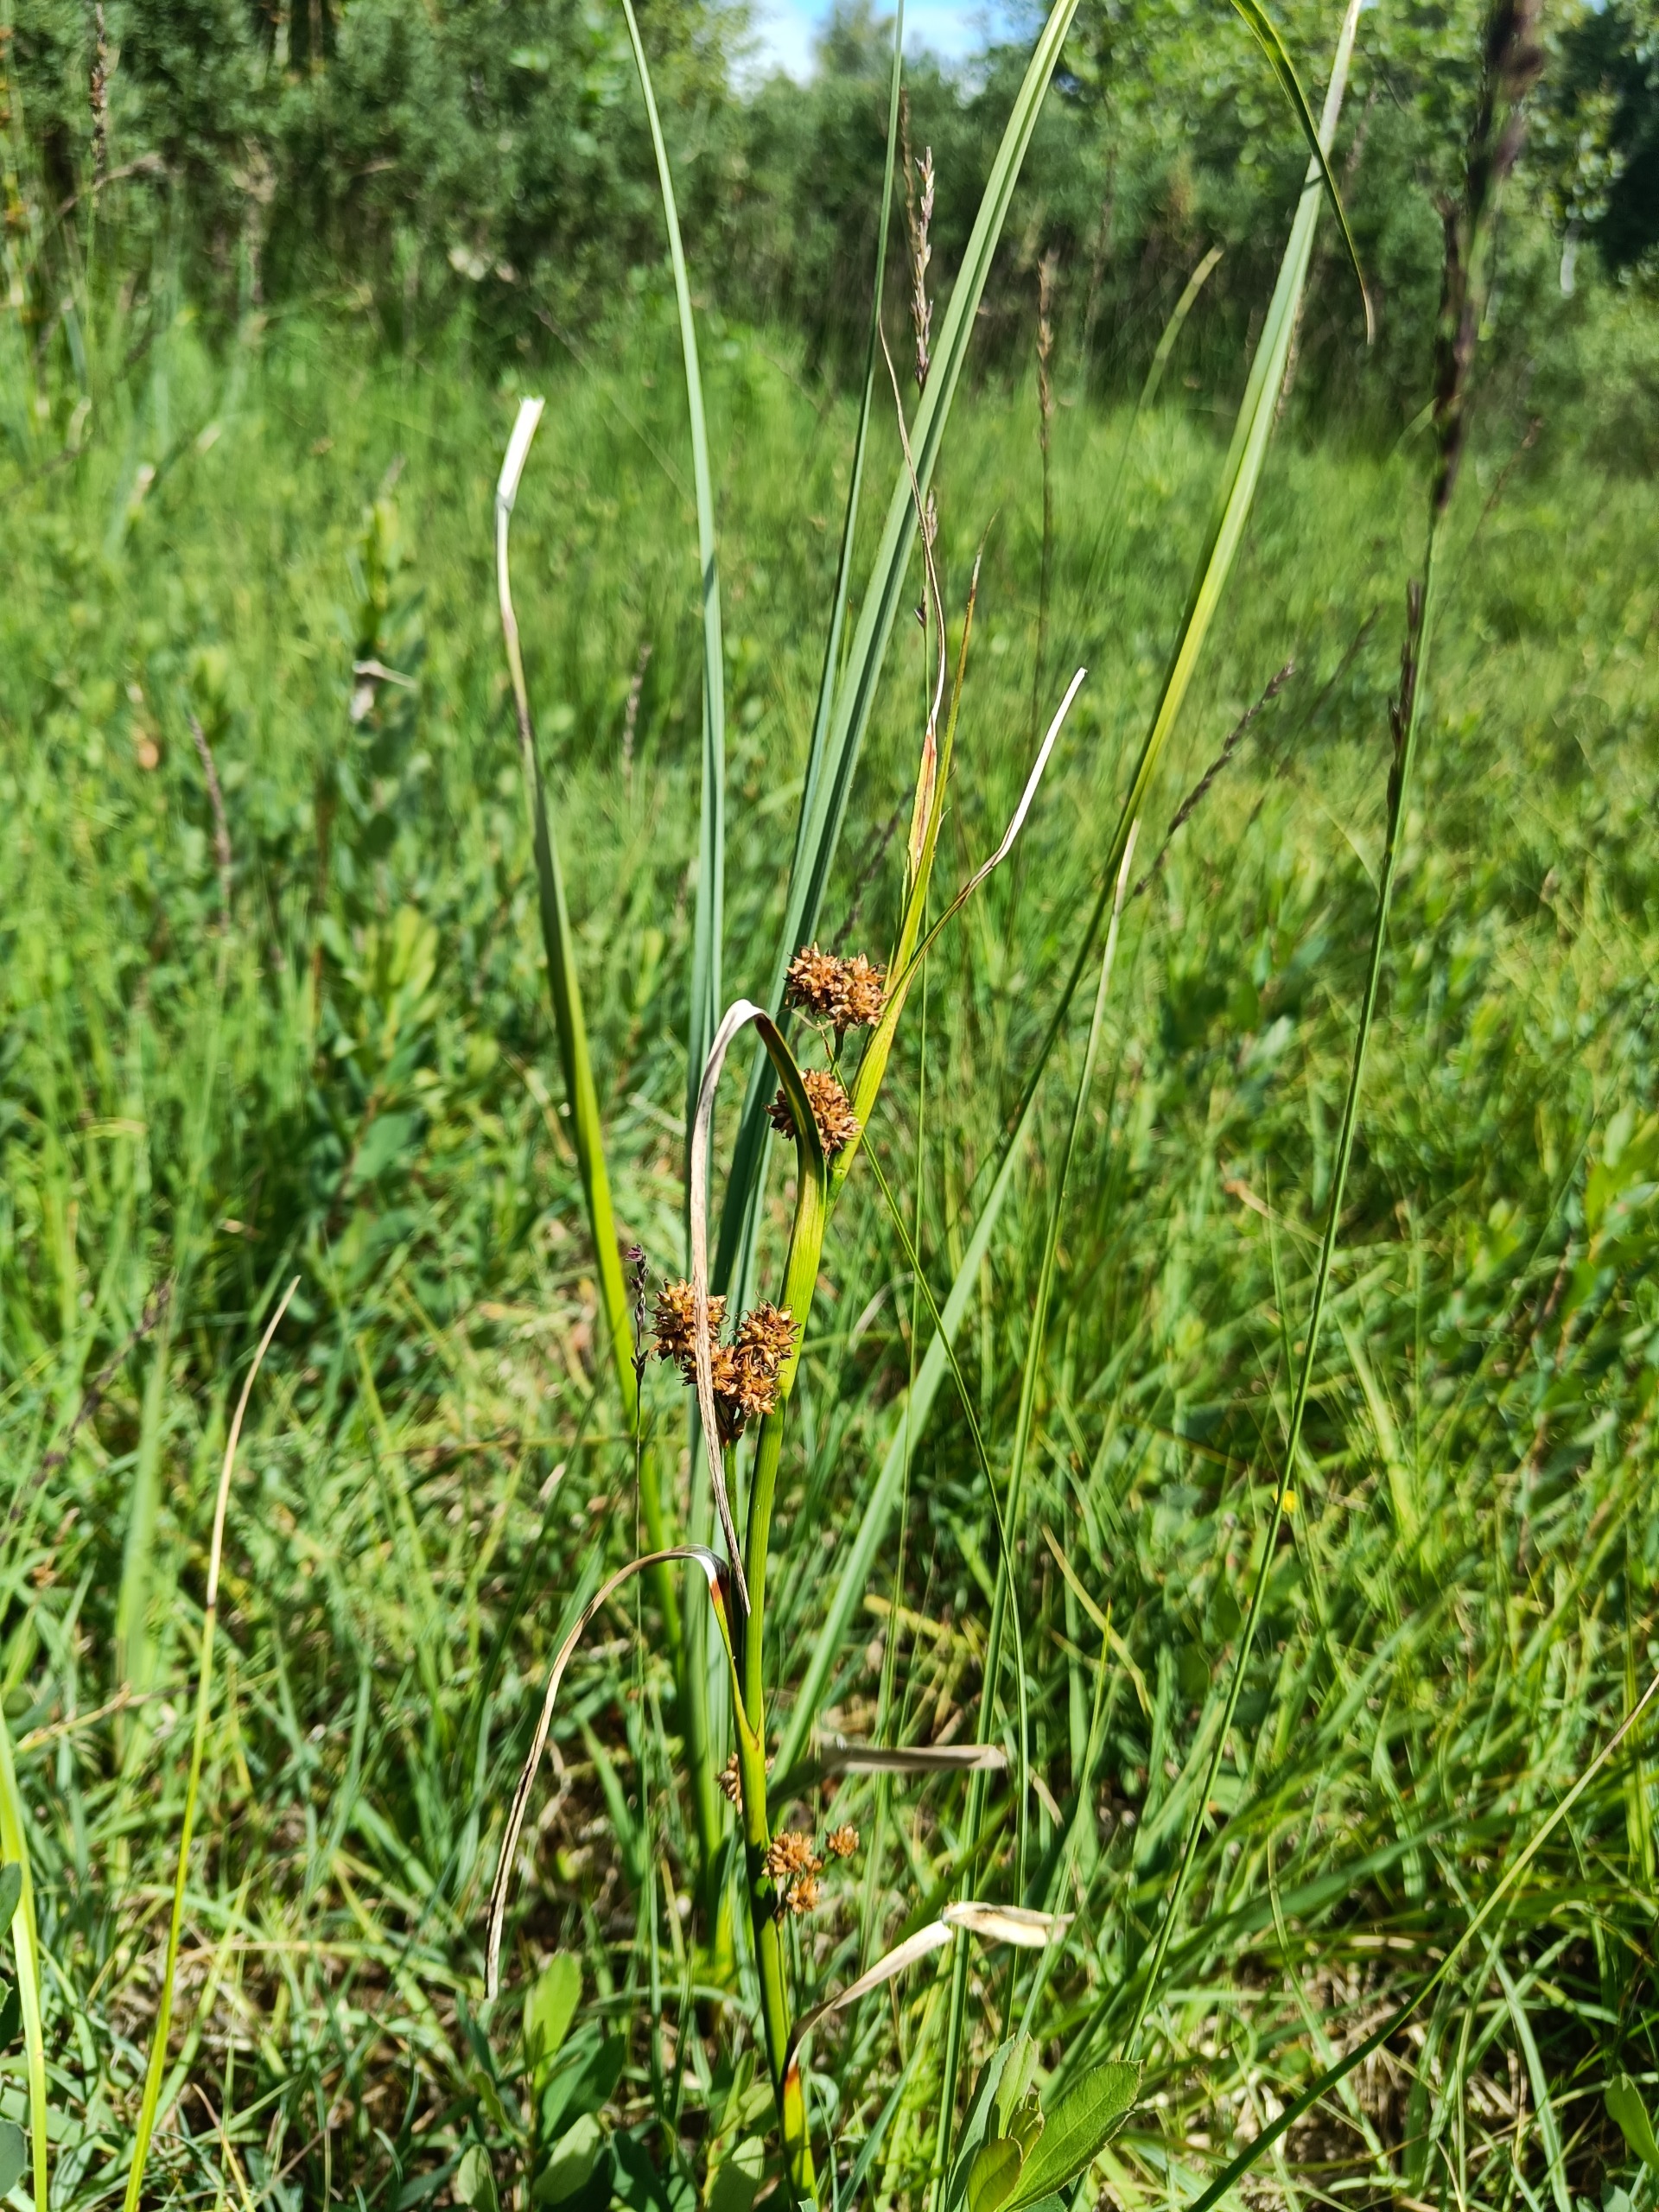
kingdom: Plantae
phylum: Tracheophyta
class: Liliopsida
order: Poales
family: Cyperaceae
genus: Cladium
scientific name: Cladium mariscus
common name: Hvas avneknippe
